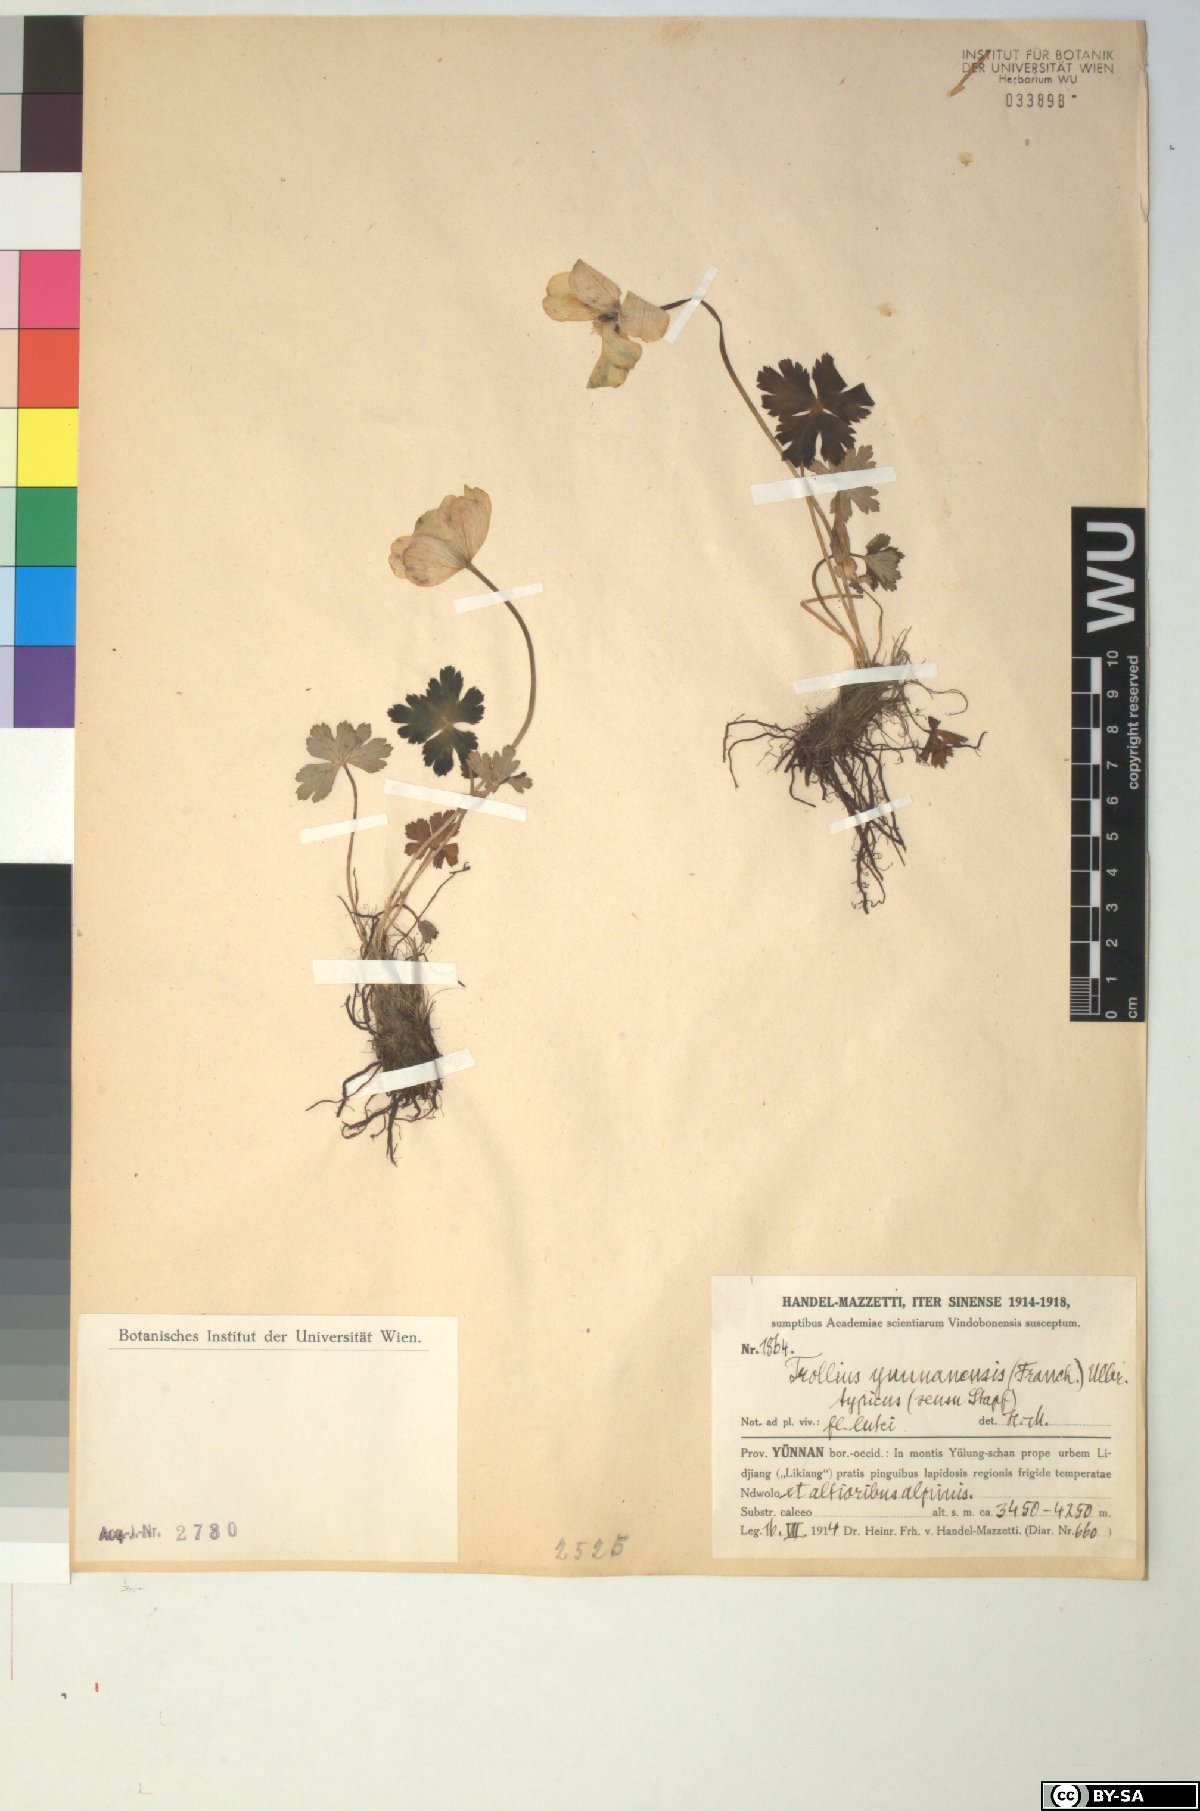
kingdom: Plantae
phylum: Tracheophyta
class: Magnoliopsida
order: Ranunculales
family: Ranunculaceae
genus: Trollius
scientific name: Trollius yunnanensis
